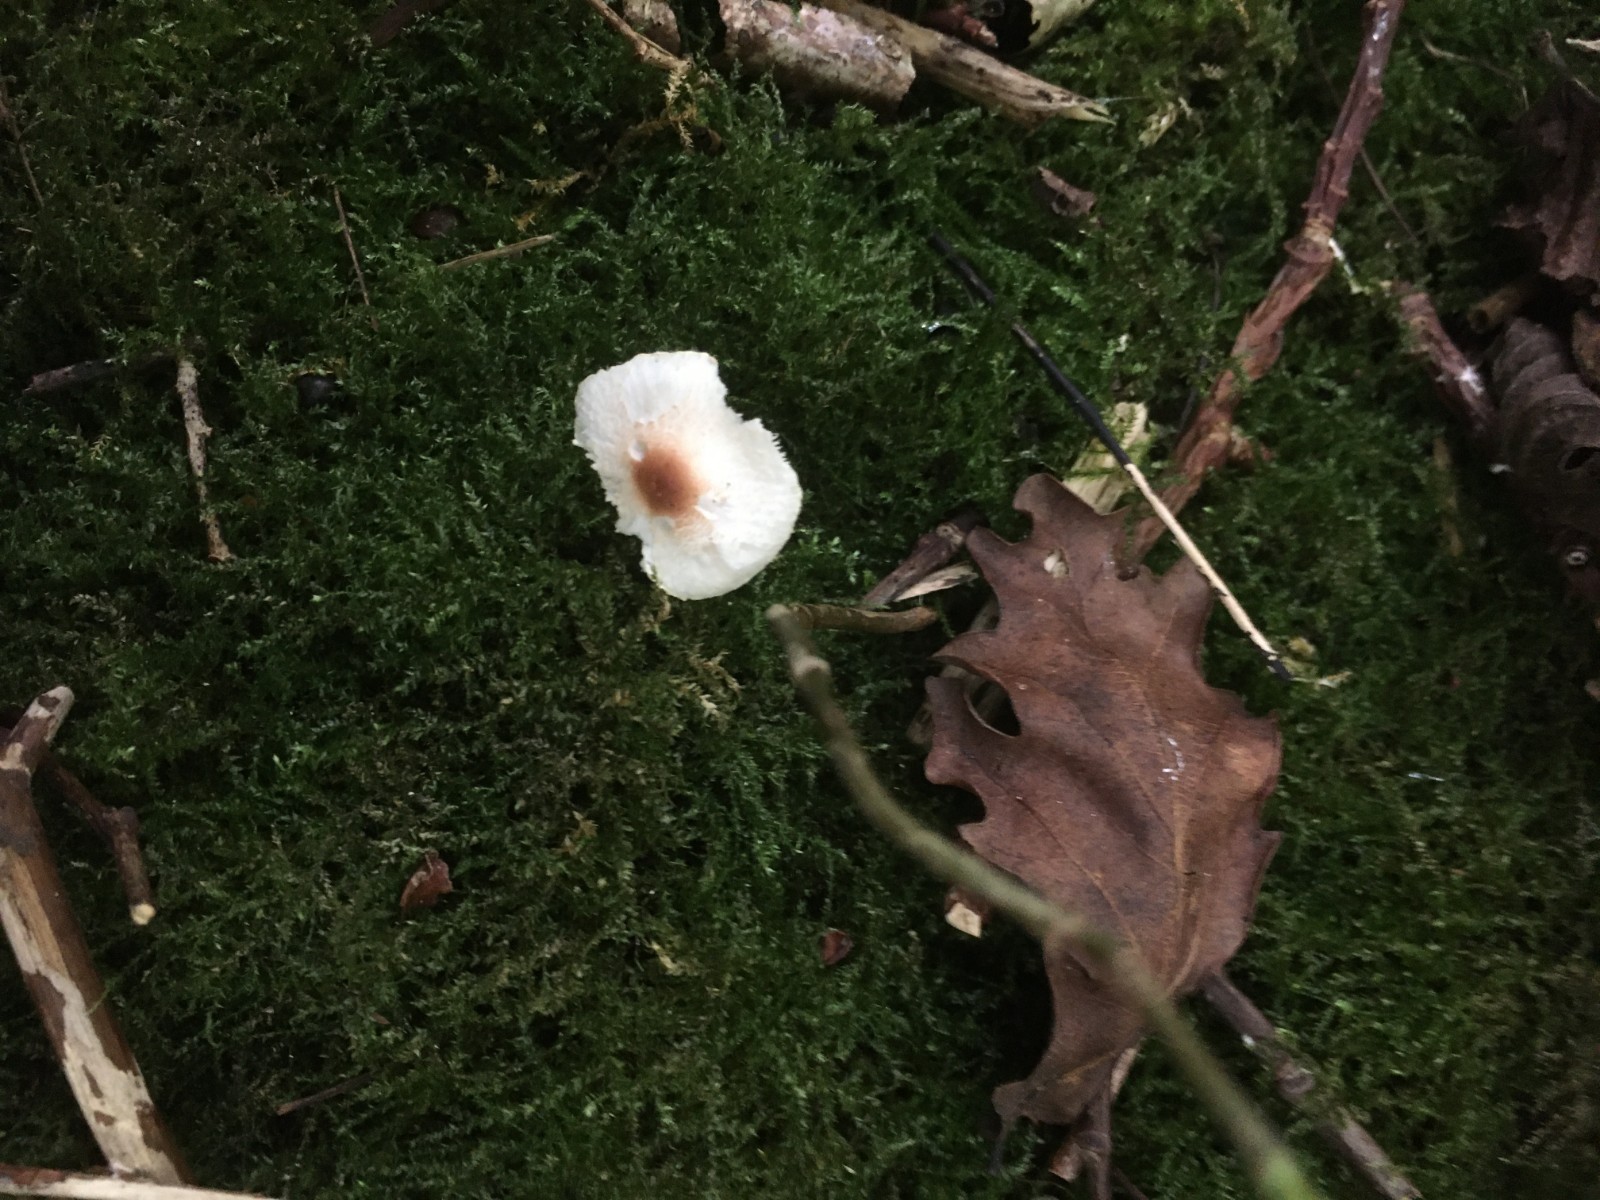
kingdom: Fungi
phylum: Basidiomycota
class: Agaricomycetes
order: Agaricales
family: Agaricaceae
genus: Lepiota
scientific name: Lepiota cristata
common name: stinkende parasolhat
